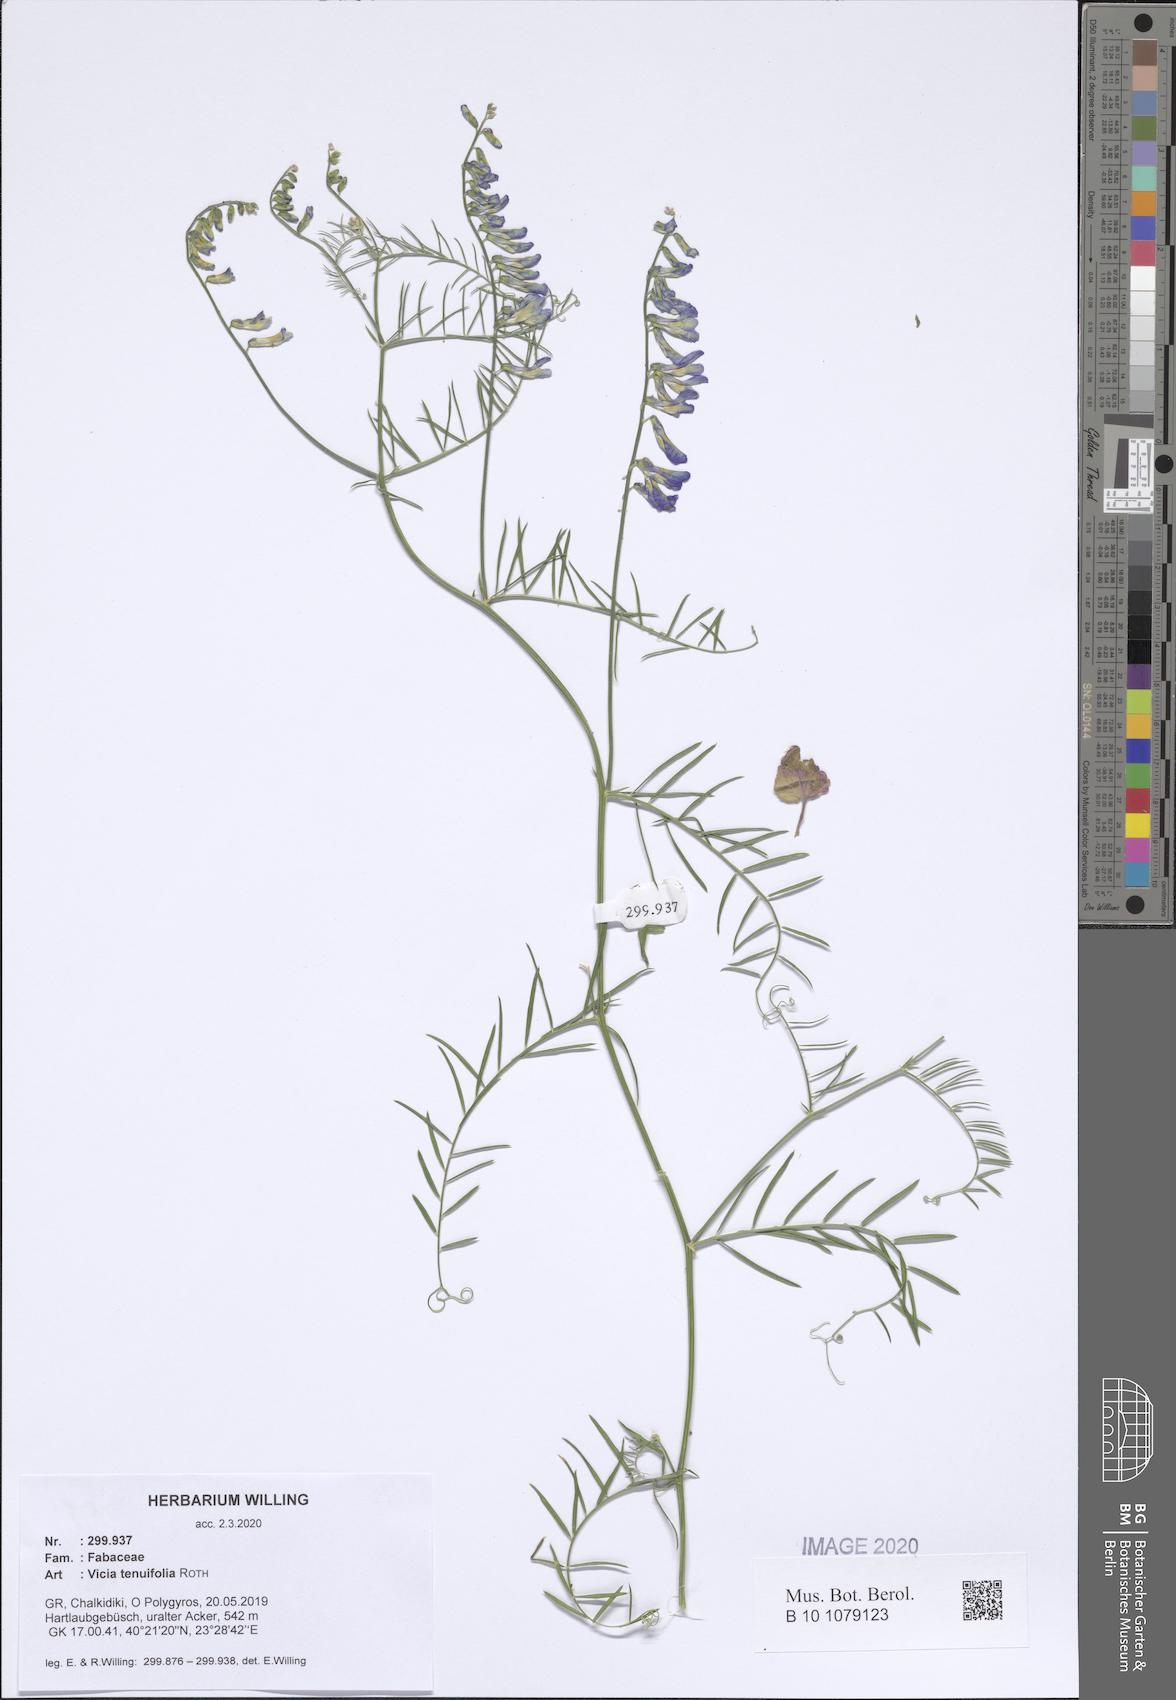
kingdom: Plantae
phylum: Tracheophyta
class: Magnoliopsida
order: Fabales
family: Fabaceae
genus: Vicia
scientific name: Vicia tenuifolia
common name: Fine-leaved vetch
